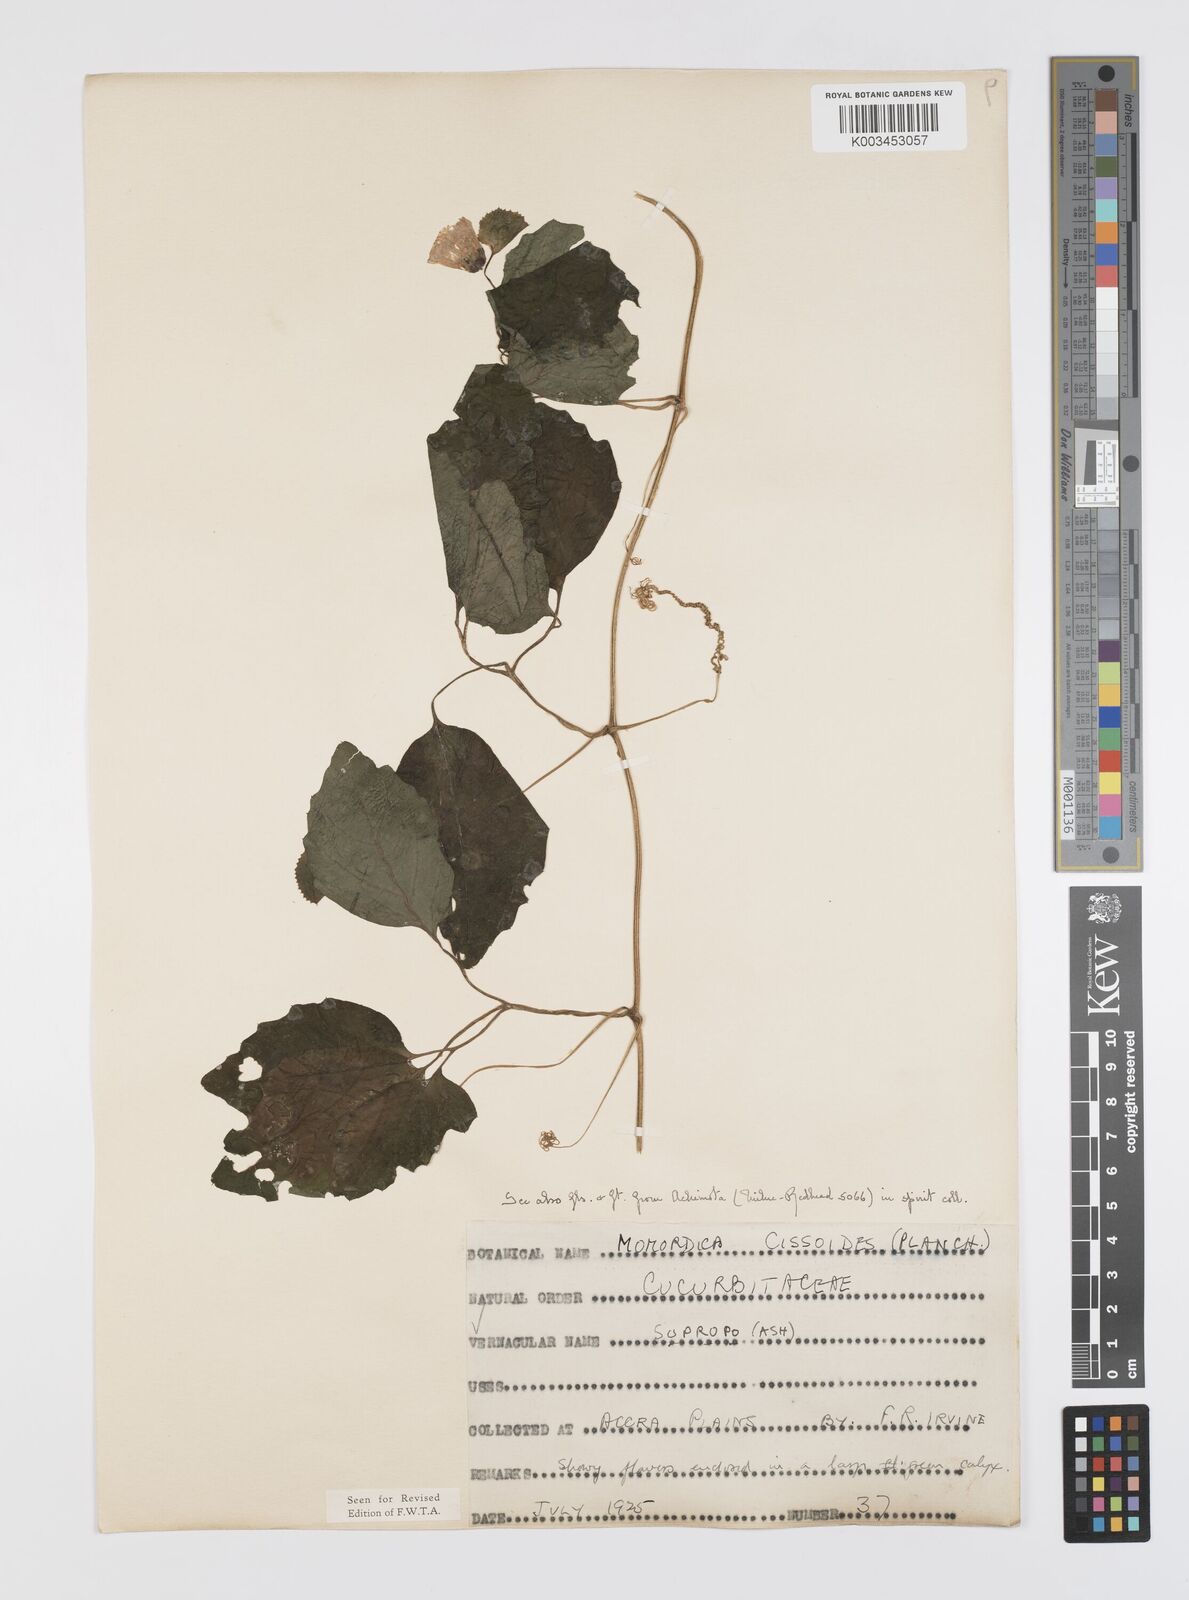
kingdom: Plantae
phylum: Tracheophyta
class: Magnoliopsida
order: Cucurbitales
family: Cucurbitaceae
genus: Momordica
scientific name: Momordica cissoides
